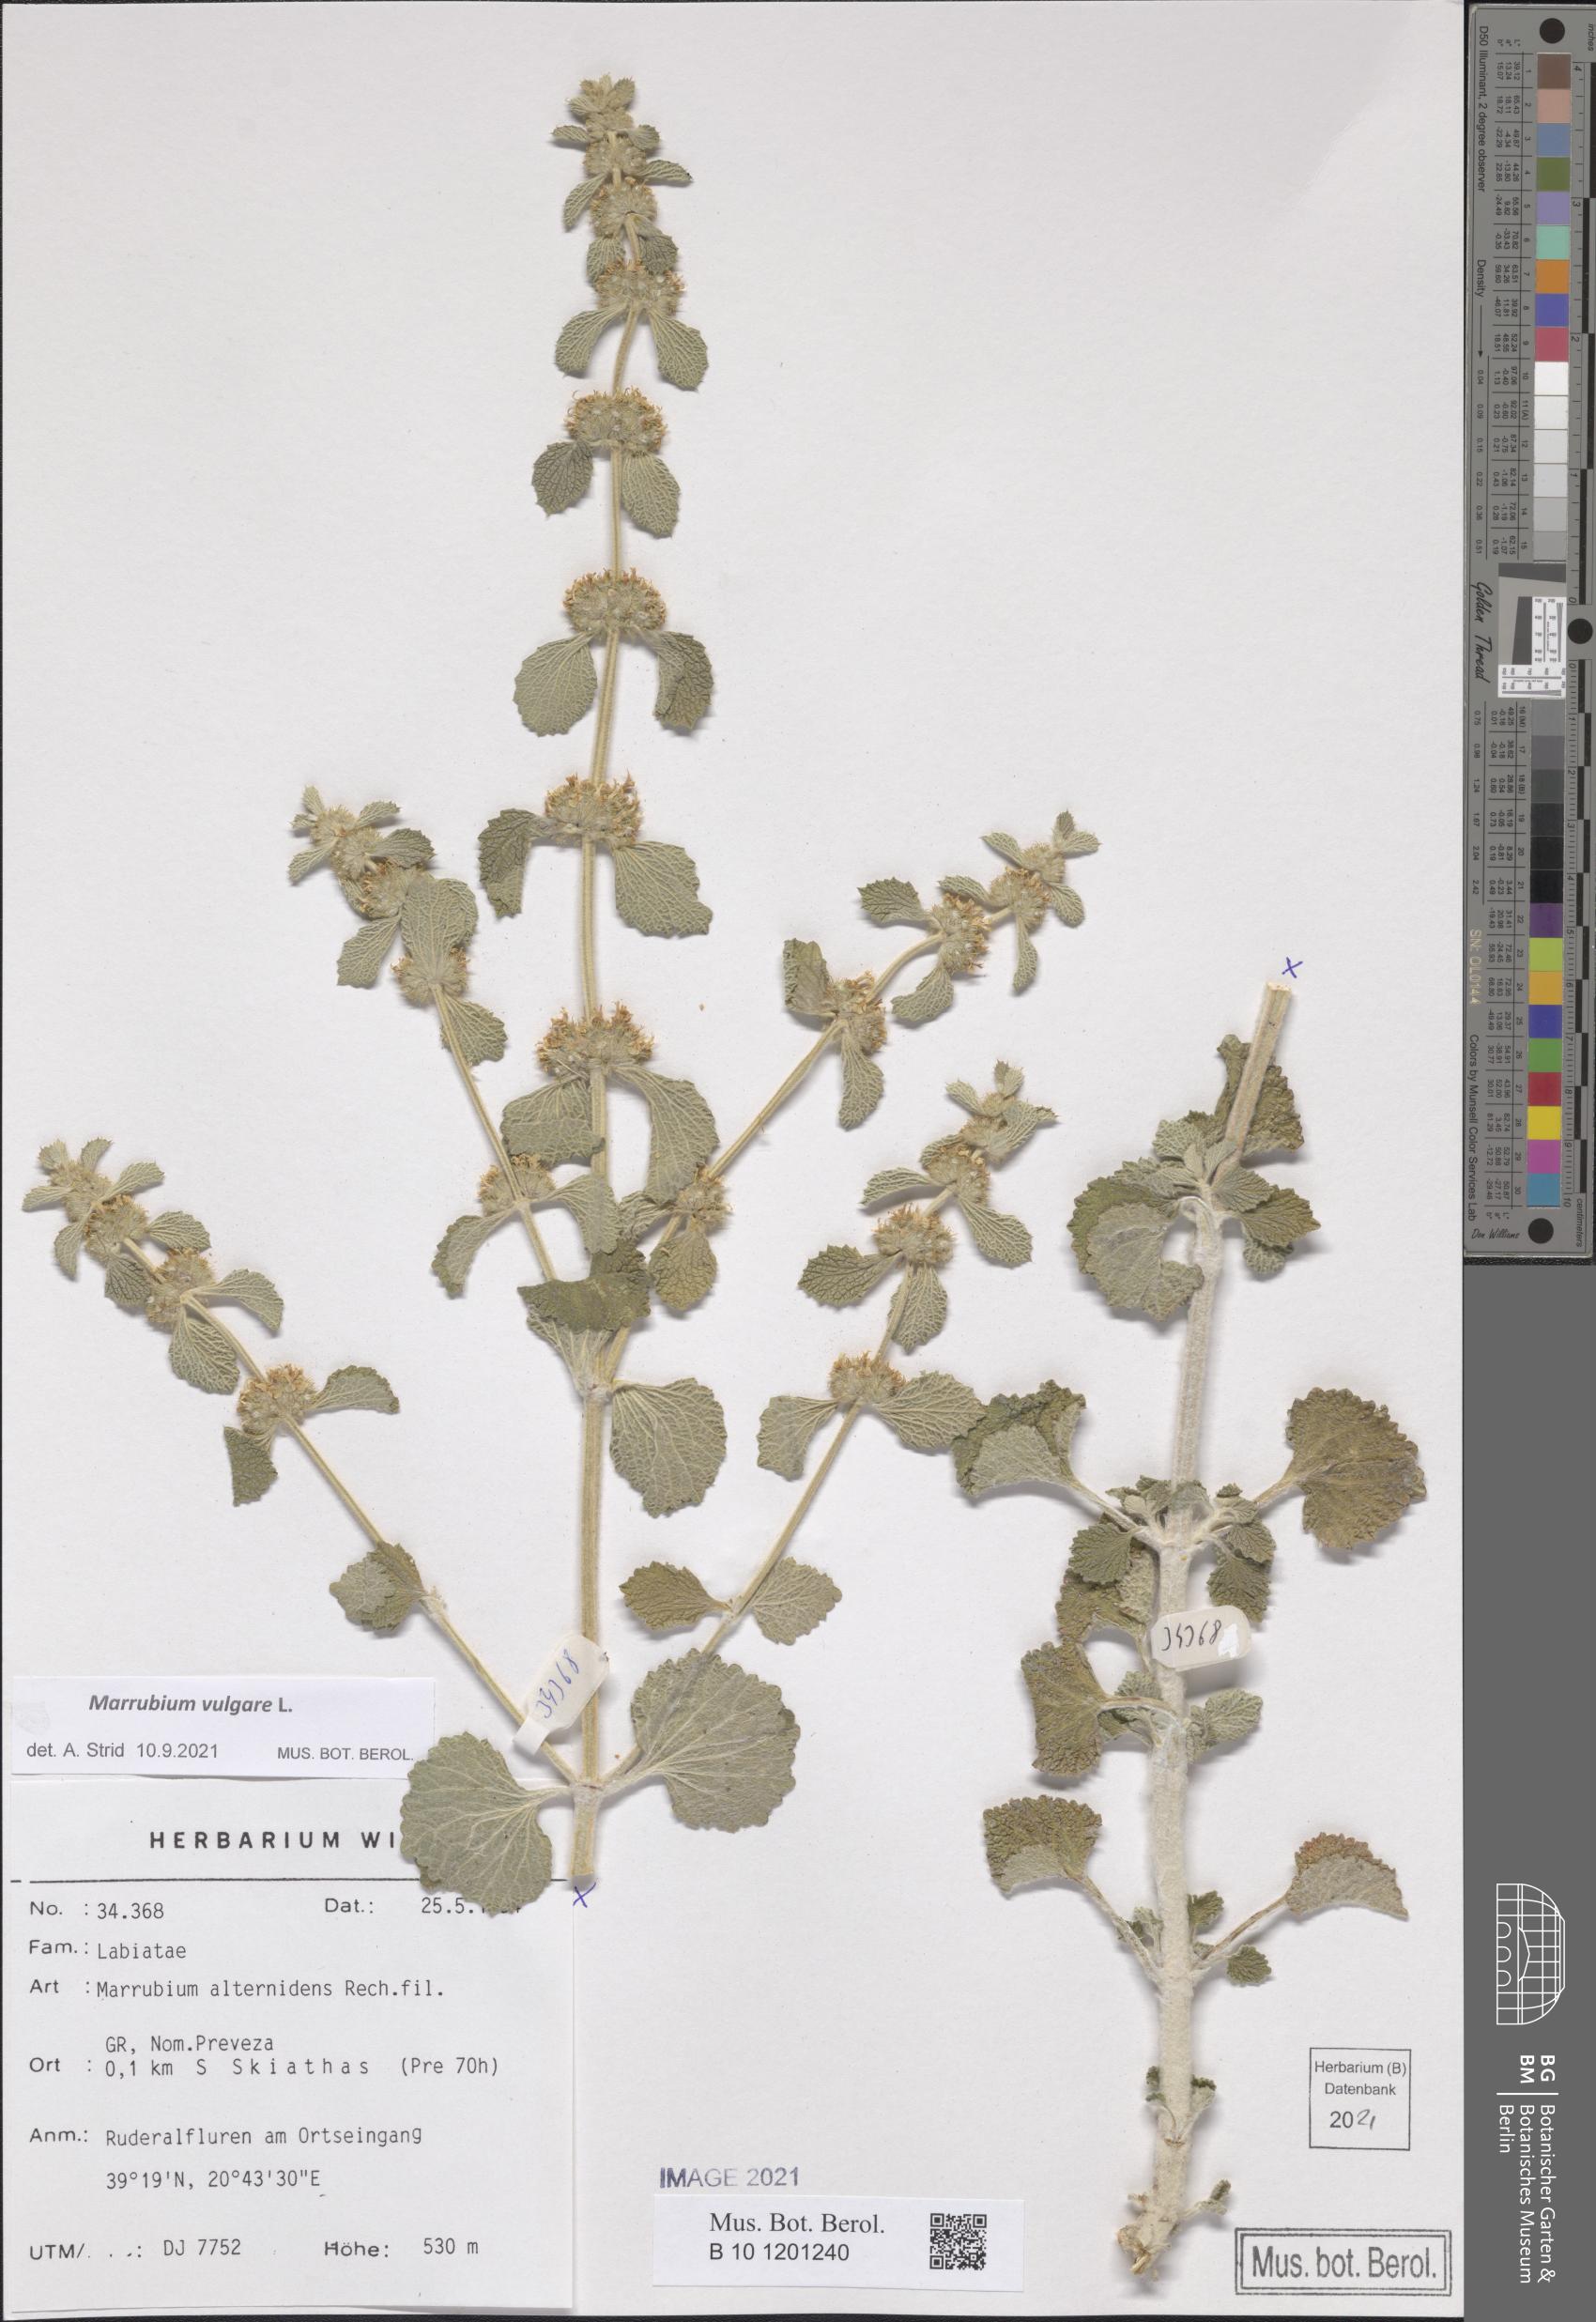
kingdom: Plantae
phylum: Tracheophyta
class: Magnoliopsida
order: Lamiales
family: Lamiaceae
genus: Marrubium
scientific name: Marrubium vulgare
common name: Horehound
